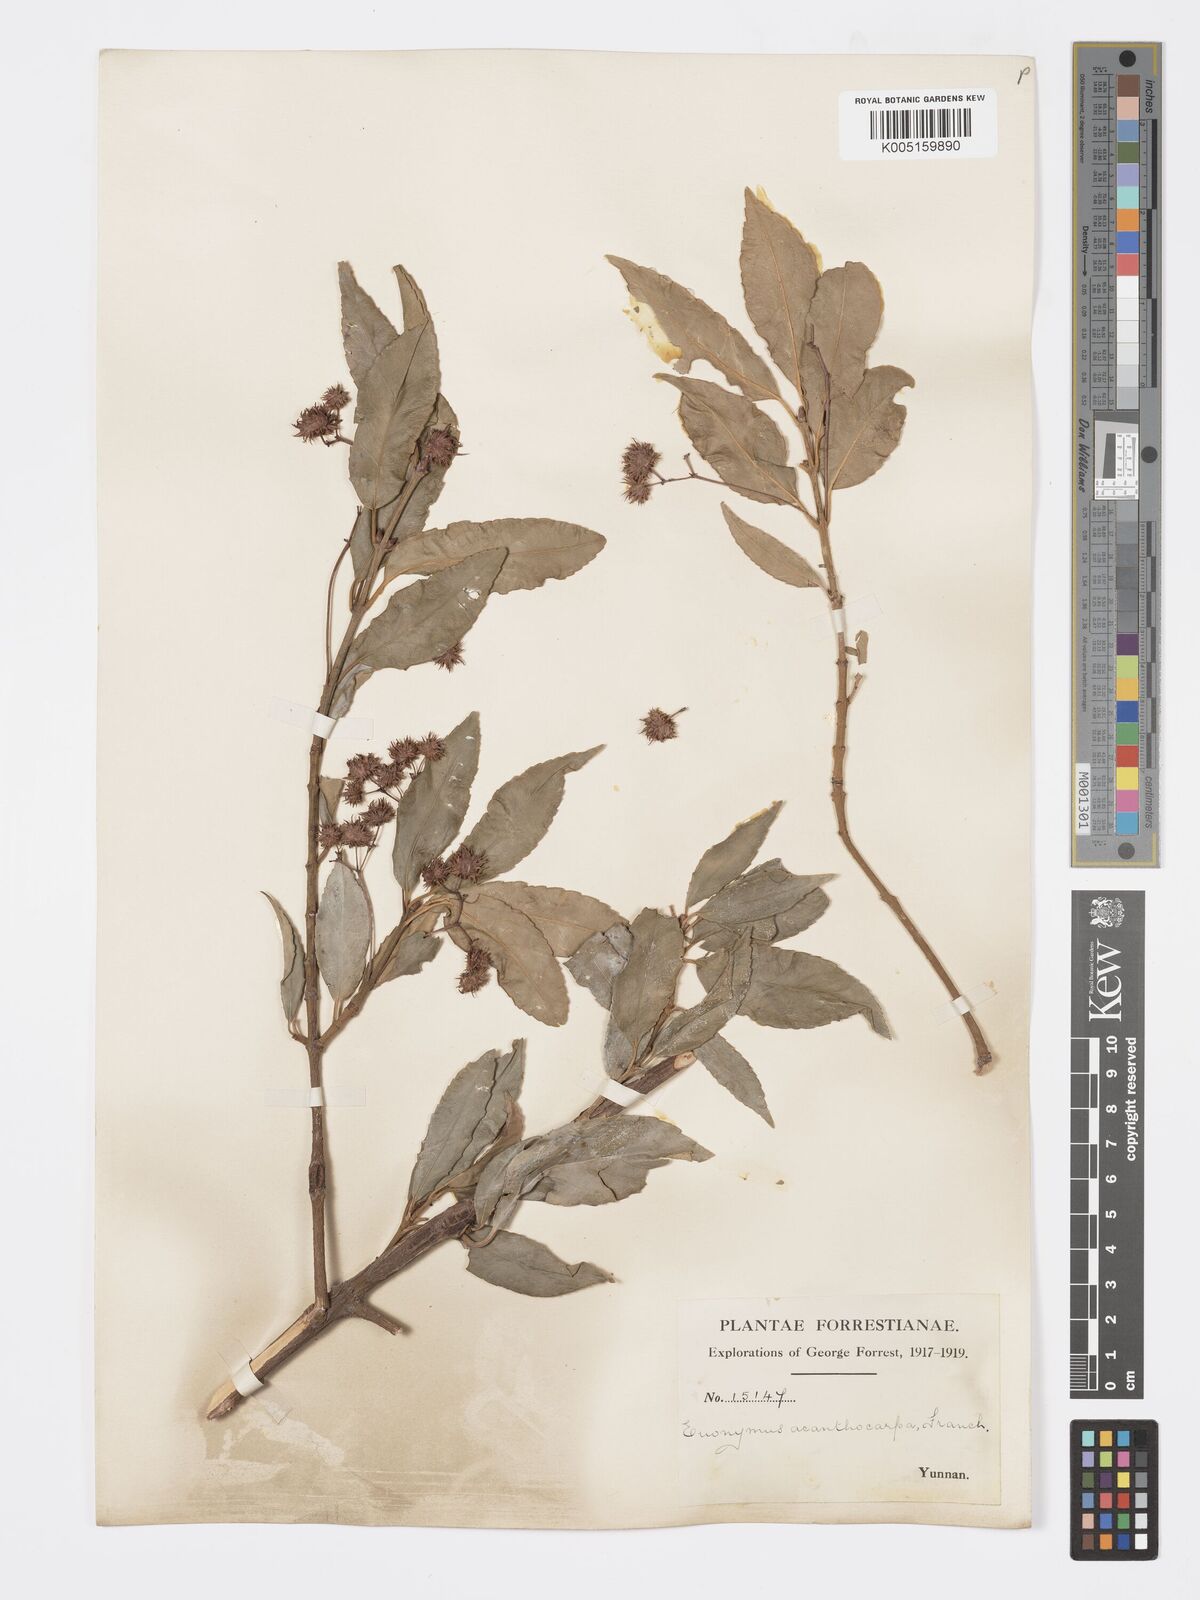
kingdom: Plantae
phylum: Tracheophyta
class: Magnoliopsida
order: Celastrales
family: Celastraceae
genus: Euonymus
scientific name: Euonymus acanthocarpus
